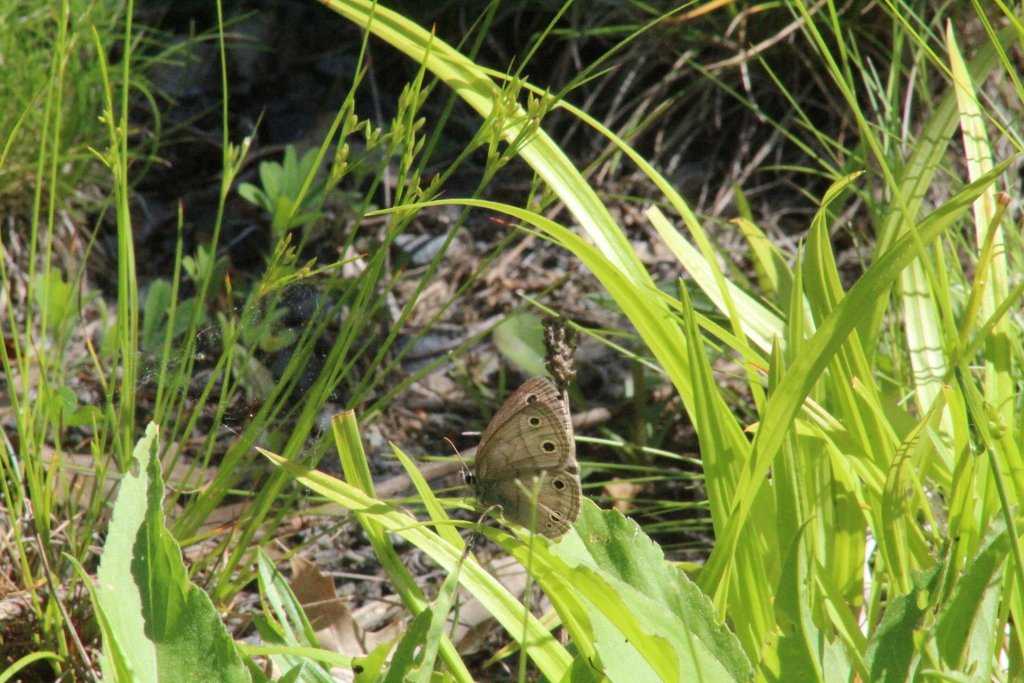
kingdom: Animalia
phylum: Arthropoda
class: Insecta
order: Lepidoptera
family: Nymphalidae
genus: Euptychia
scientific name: Euptychia cymela
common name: Little Wood Satyr
